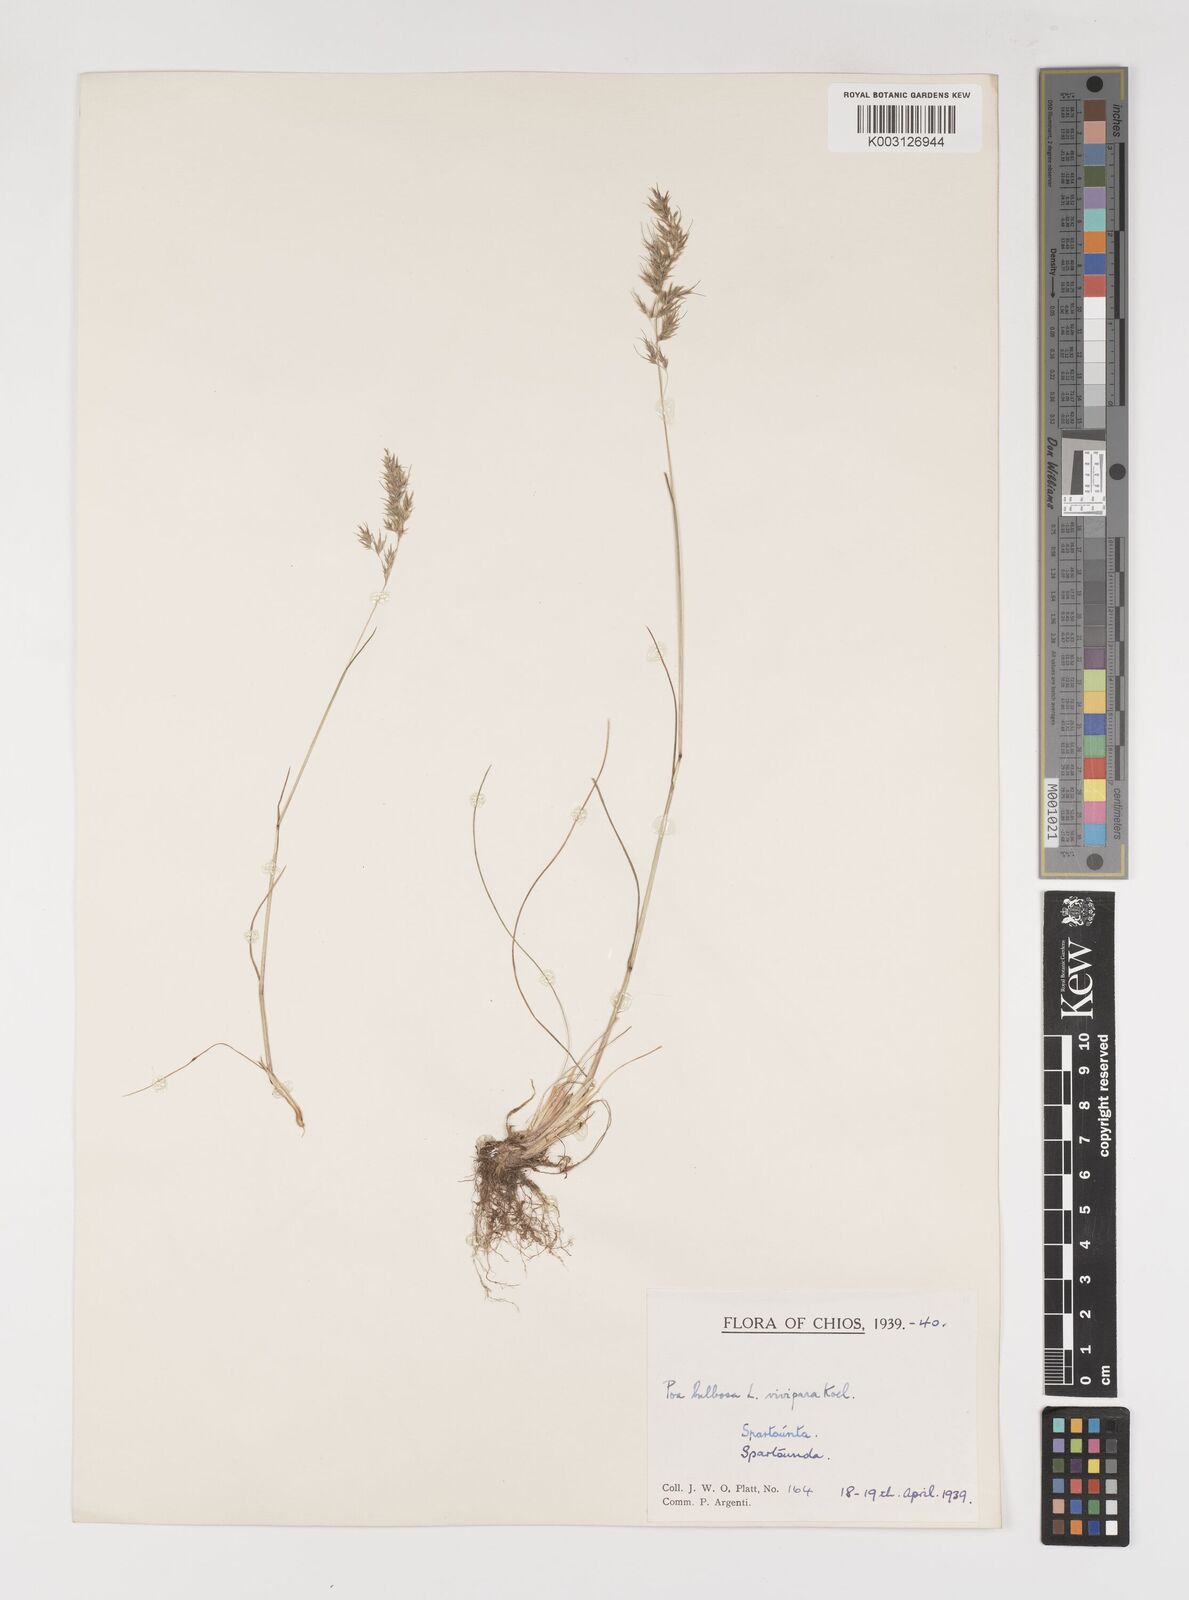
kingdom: Plantae
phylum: Tracheophyta
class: Liliopsida
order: Poales
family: Poaceae
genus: Poa
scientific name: Poa bulbosa
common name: Bulbous bluegrass
